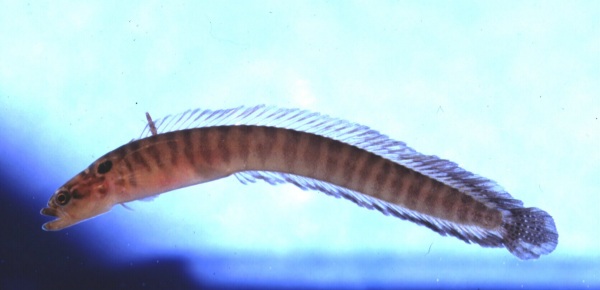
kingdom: Animalia
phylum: Chordata
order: Perciformes
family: Pseudochromidae
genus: Natalichthys
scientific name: Natalichthys sam
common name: Nail snakelet
